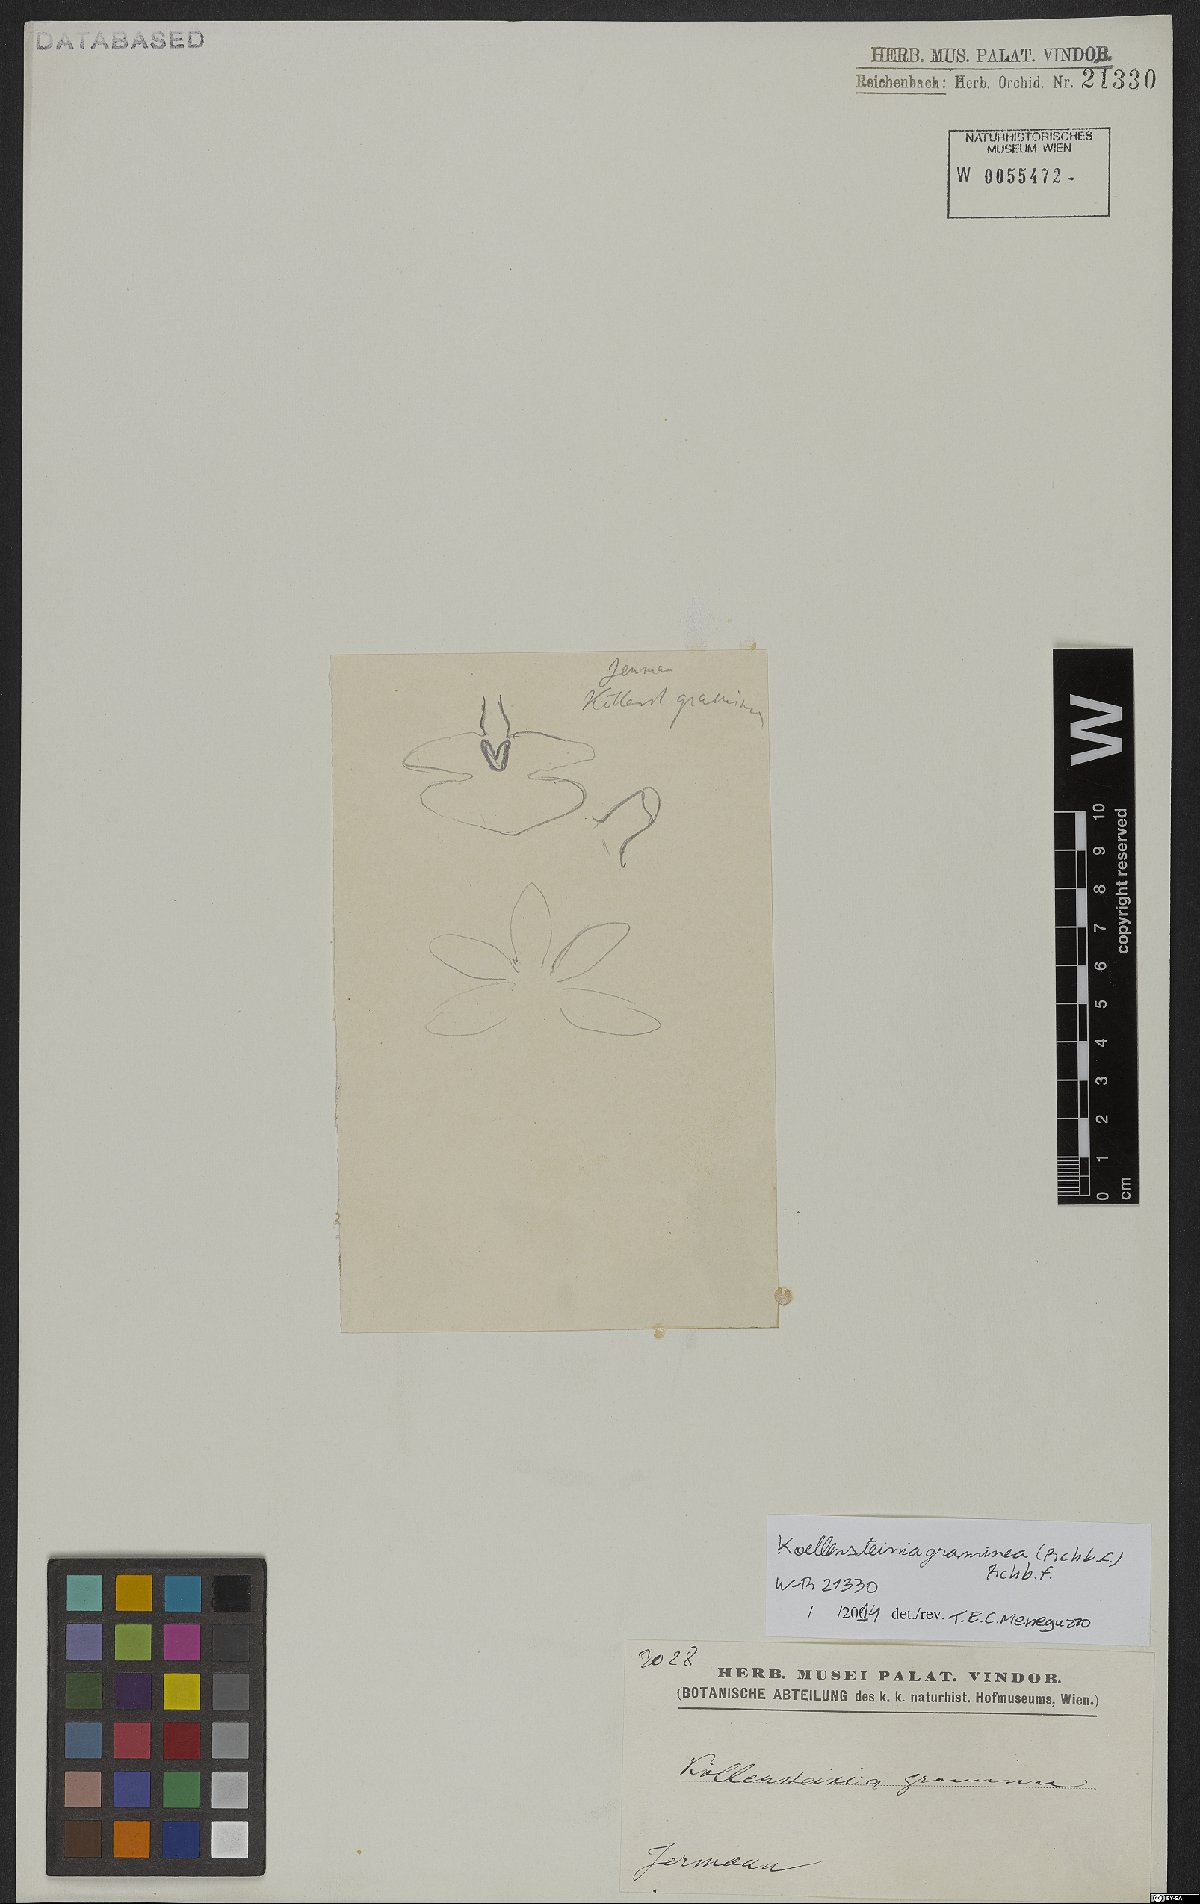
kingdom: Plantae
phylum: Tracheophyta
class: Liliopsida
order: Asparagales
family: Orchidaceae
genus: Koellensteinia
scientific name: Koellensteinia graminea
